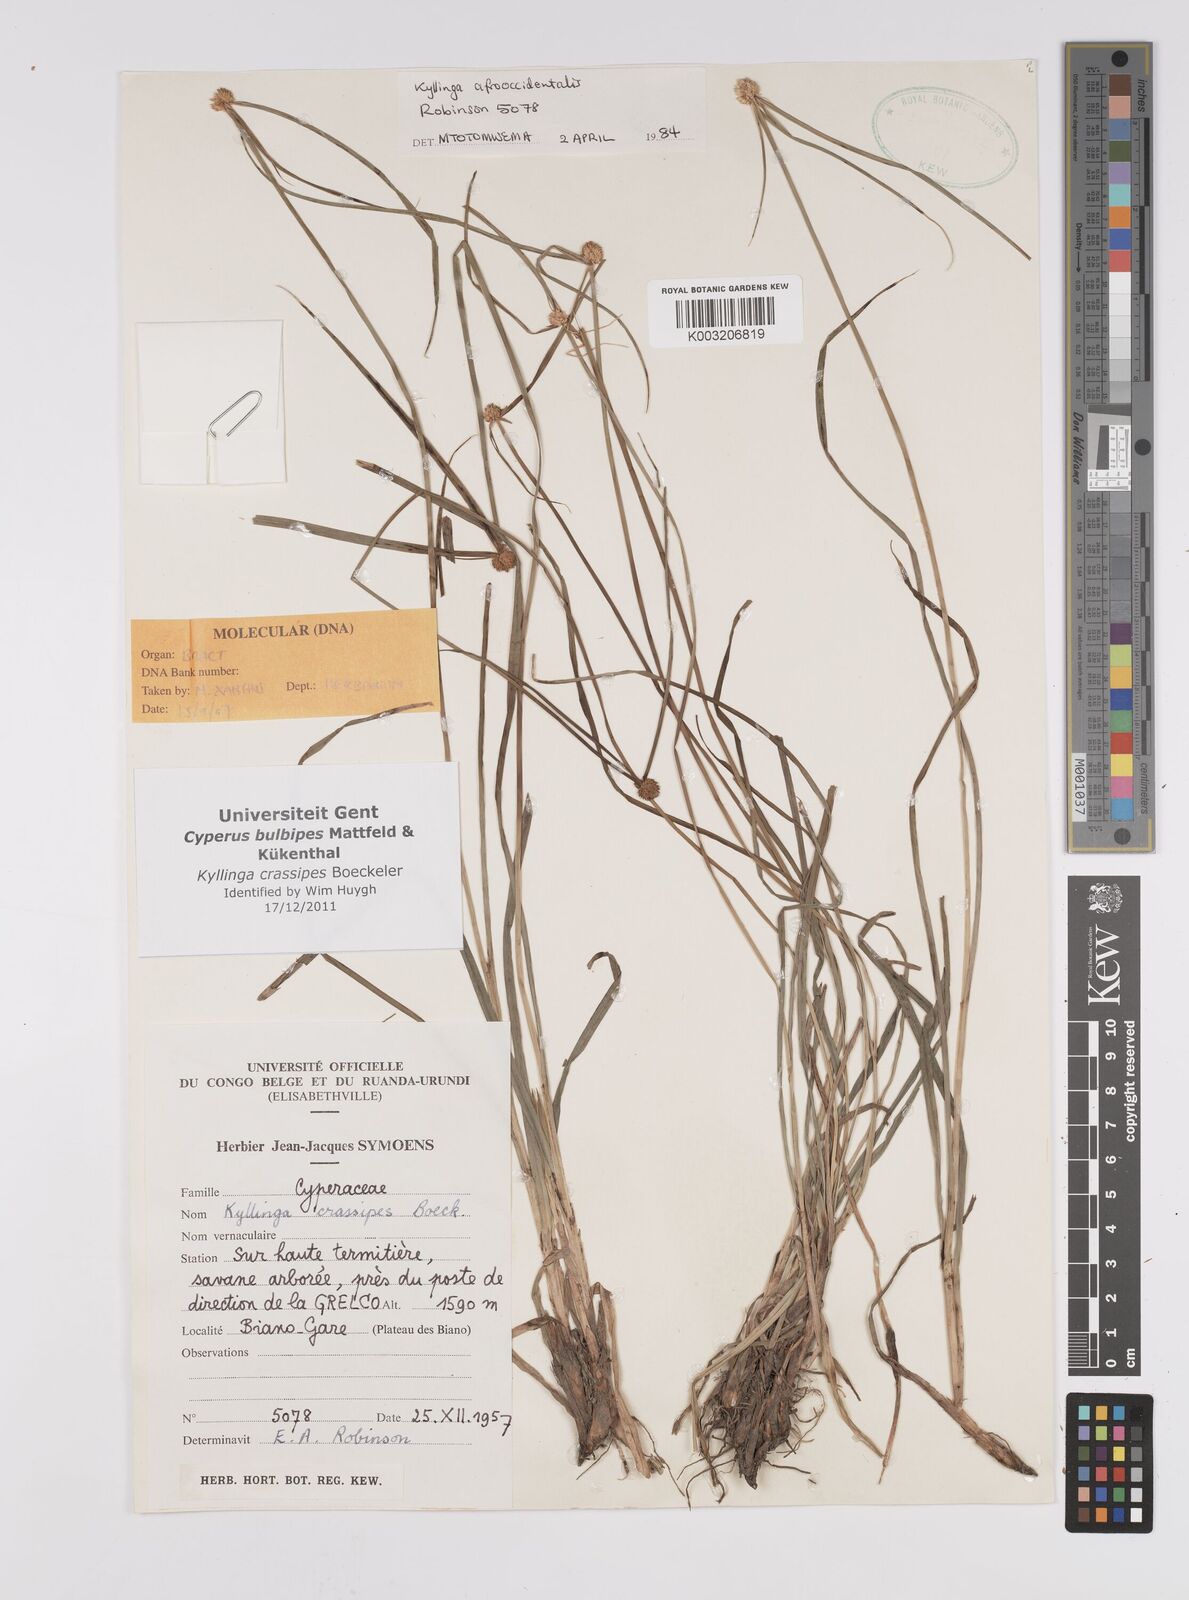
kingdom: Plantae
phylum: Tracheophyta
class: Liliopsida
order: Poales
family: Cyperaceae
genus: Cyperus
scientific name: Cyperus
